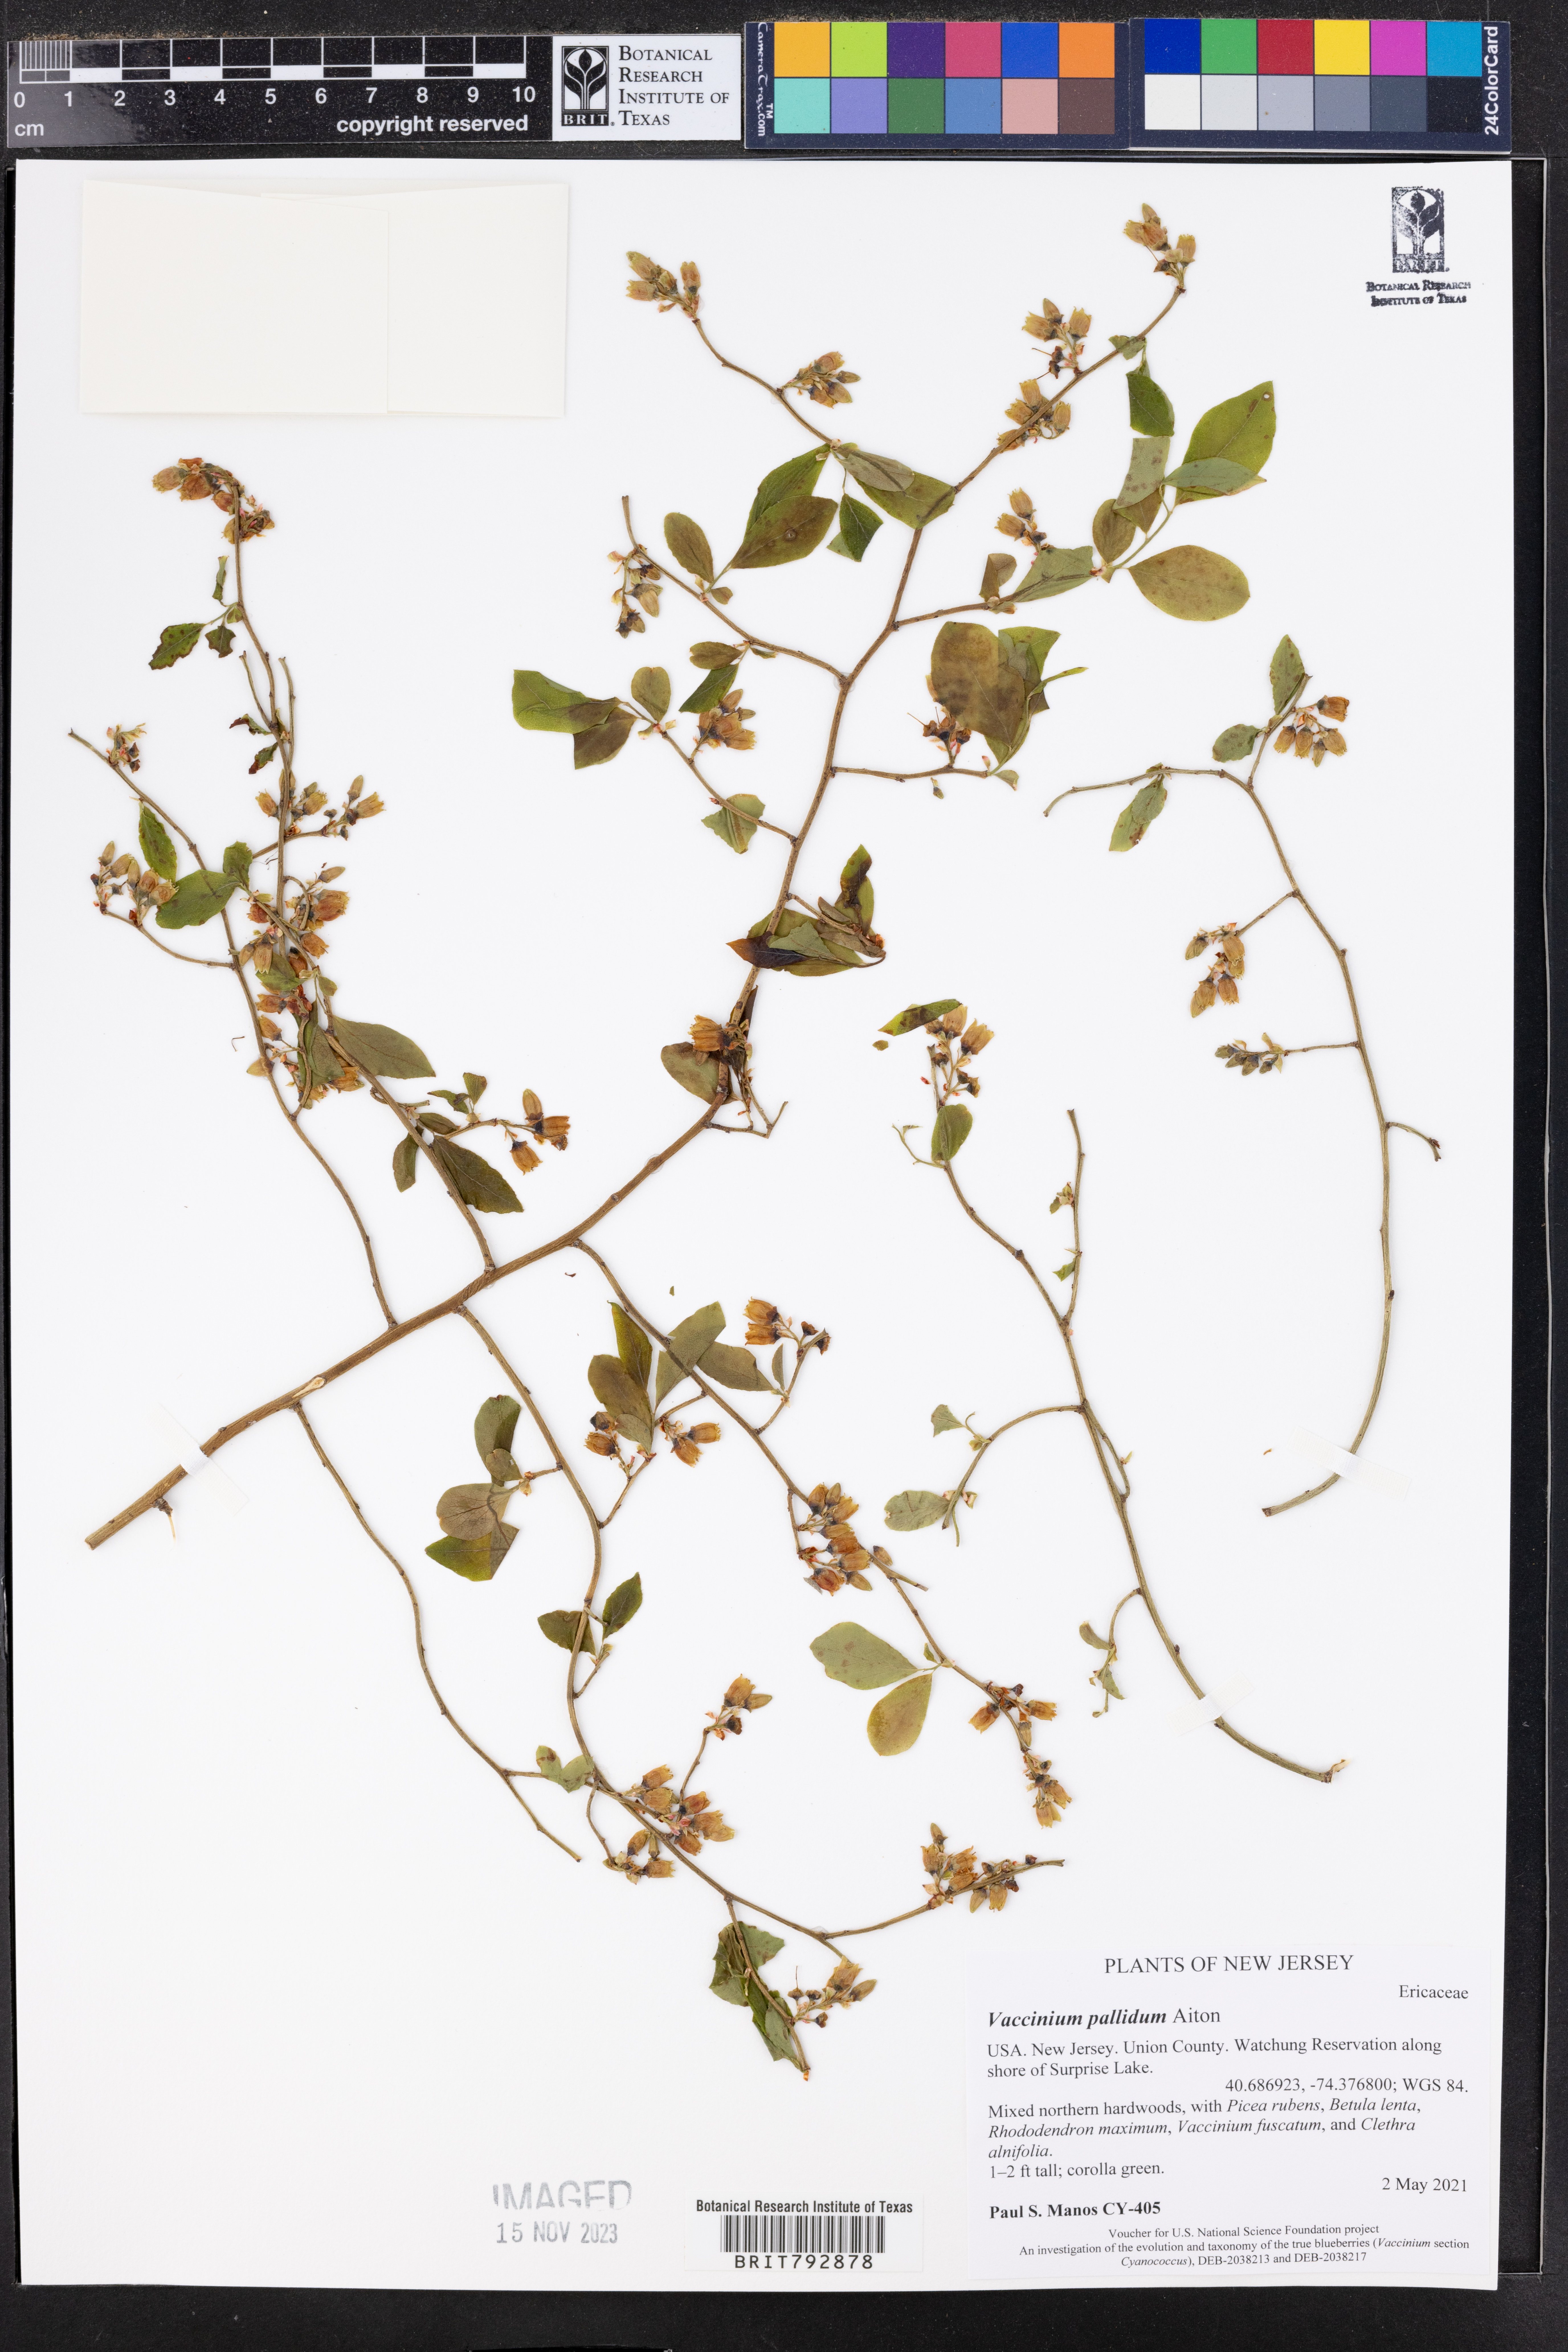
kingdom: Plantae
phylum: Tracheophyta
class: Magnoliopsida
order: Ericales
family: Ericaceae
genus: Vaccinium
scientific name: Vaccinium pallidum
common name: Blue ridge blueberry
